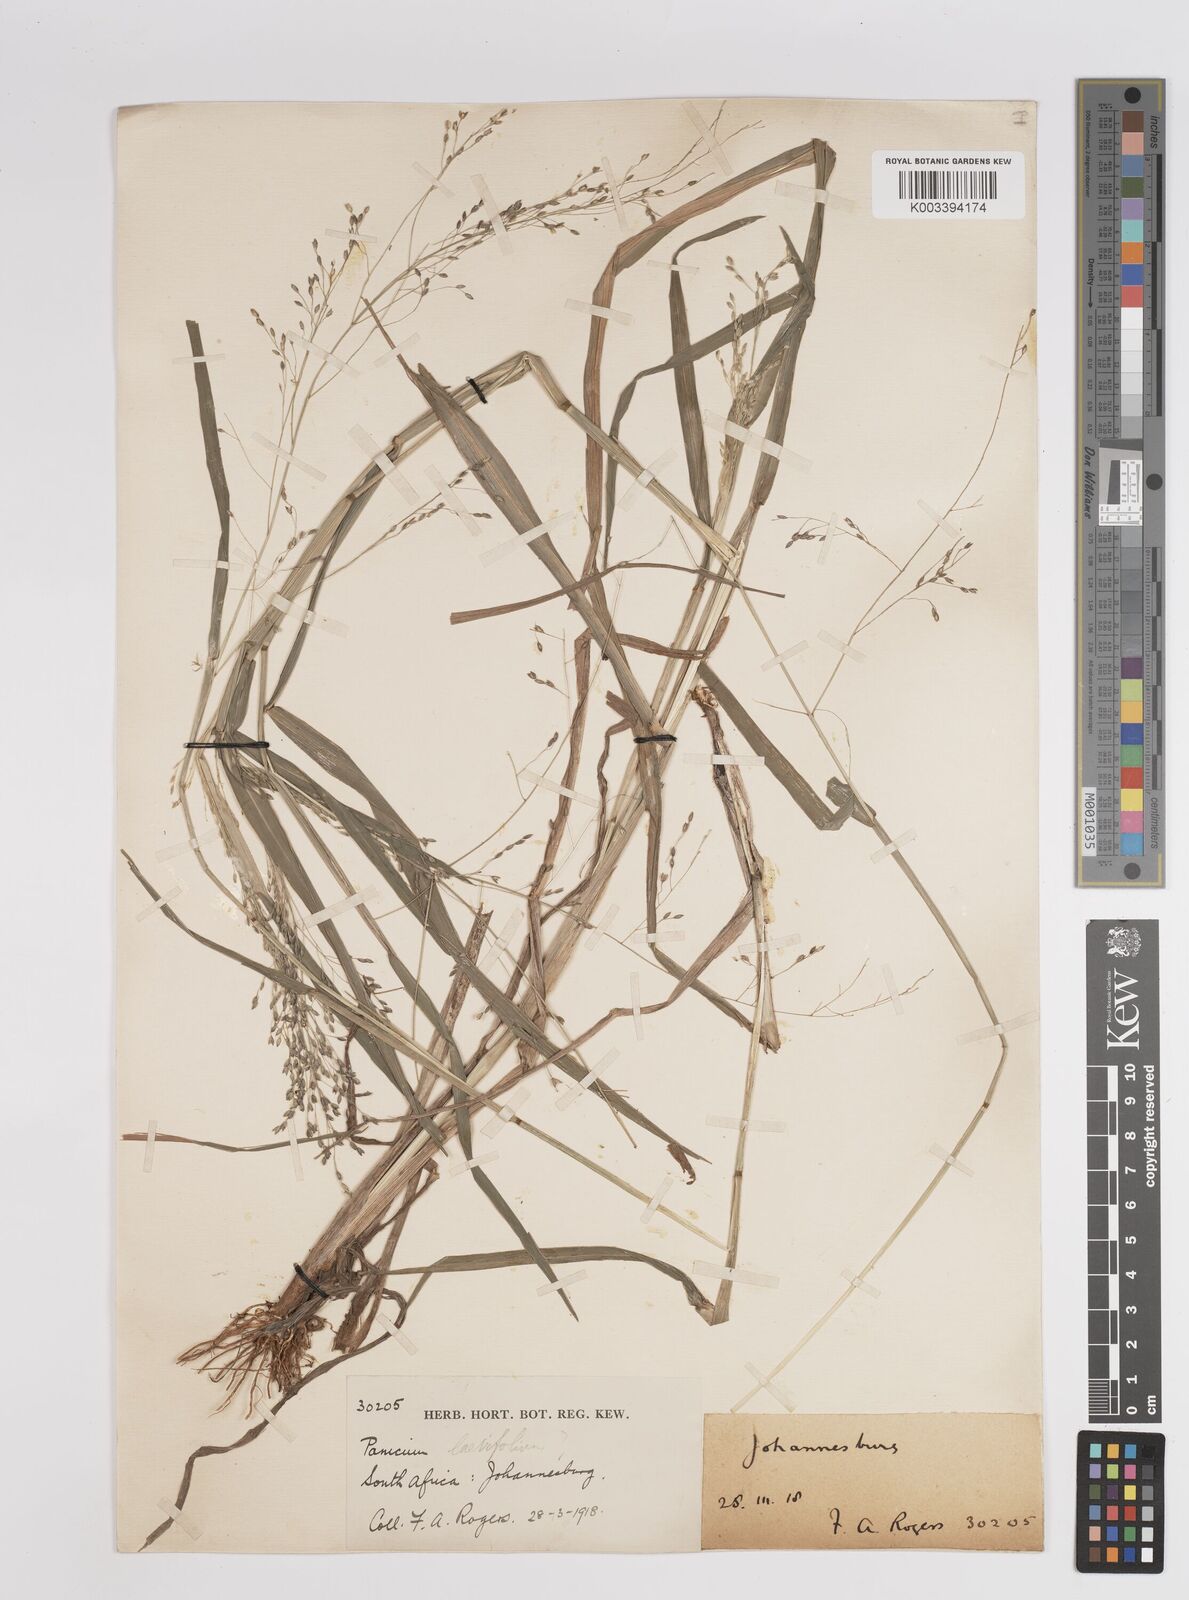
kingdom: Plantae
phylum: Tracheophyta
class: Liliopsida
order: Poales
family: Poaceae
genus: Panicum
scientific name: Panicum schinzii
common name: Sweet grass
